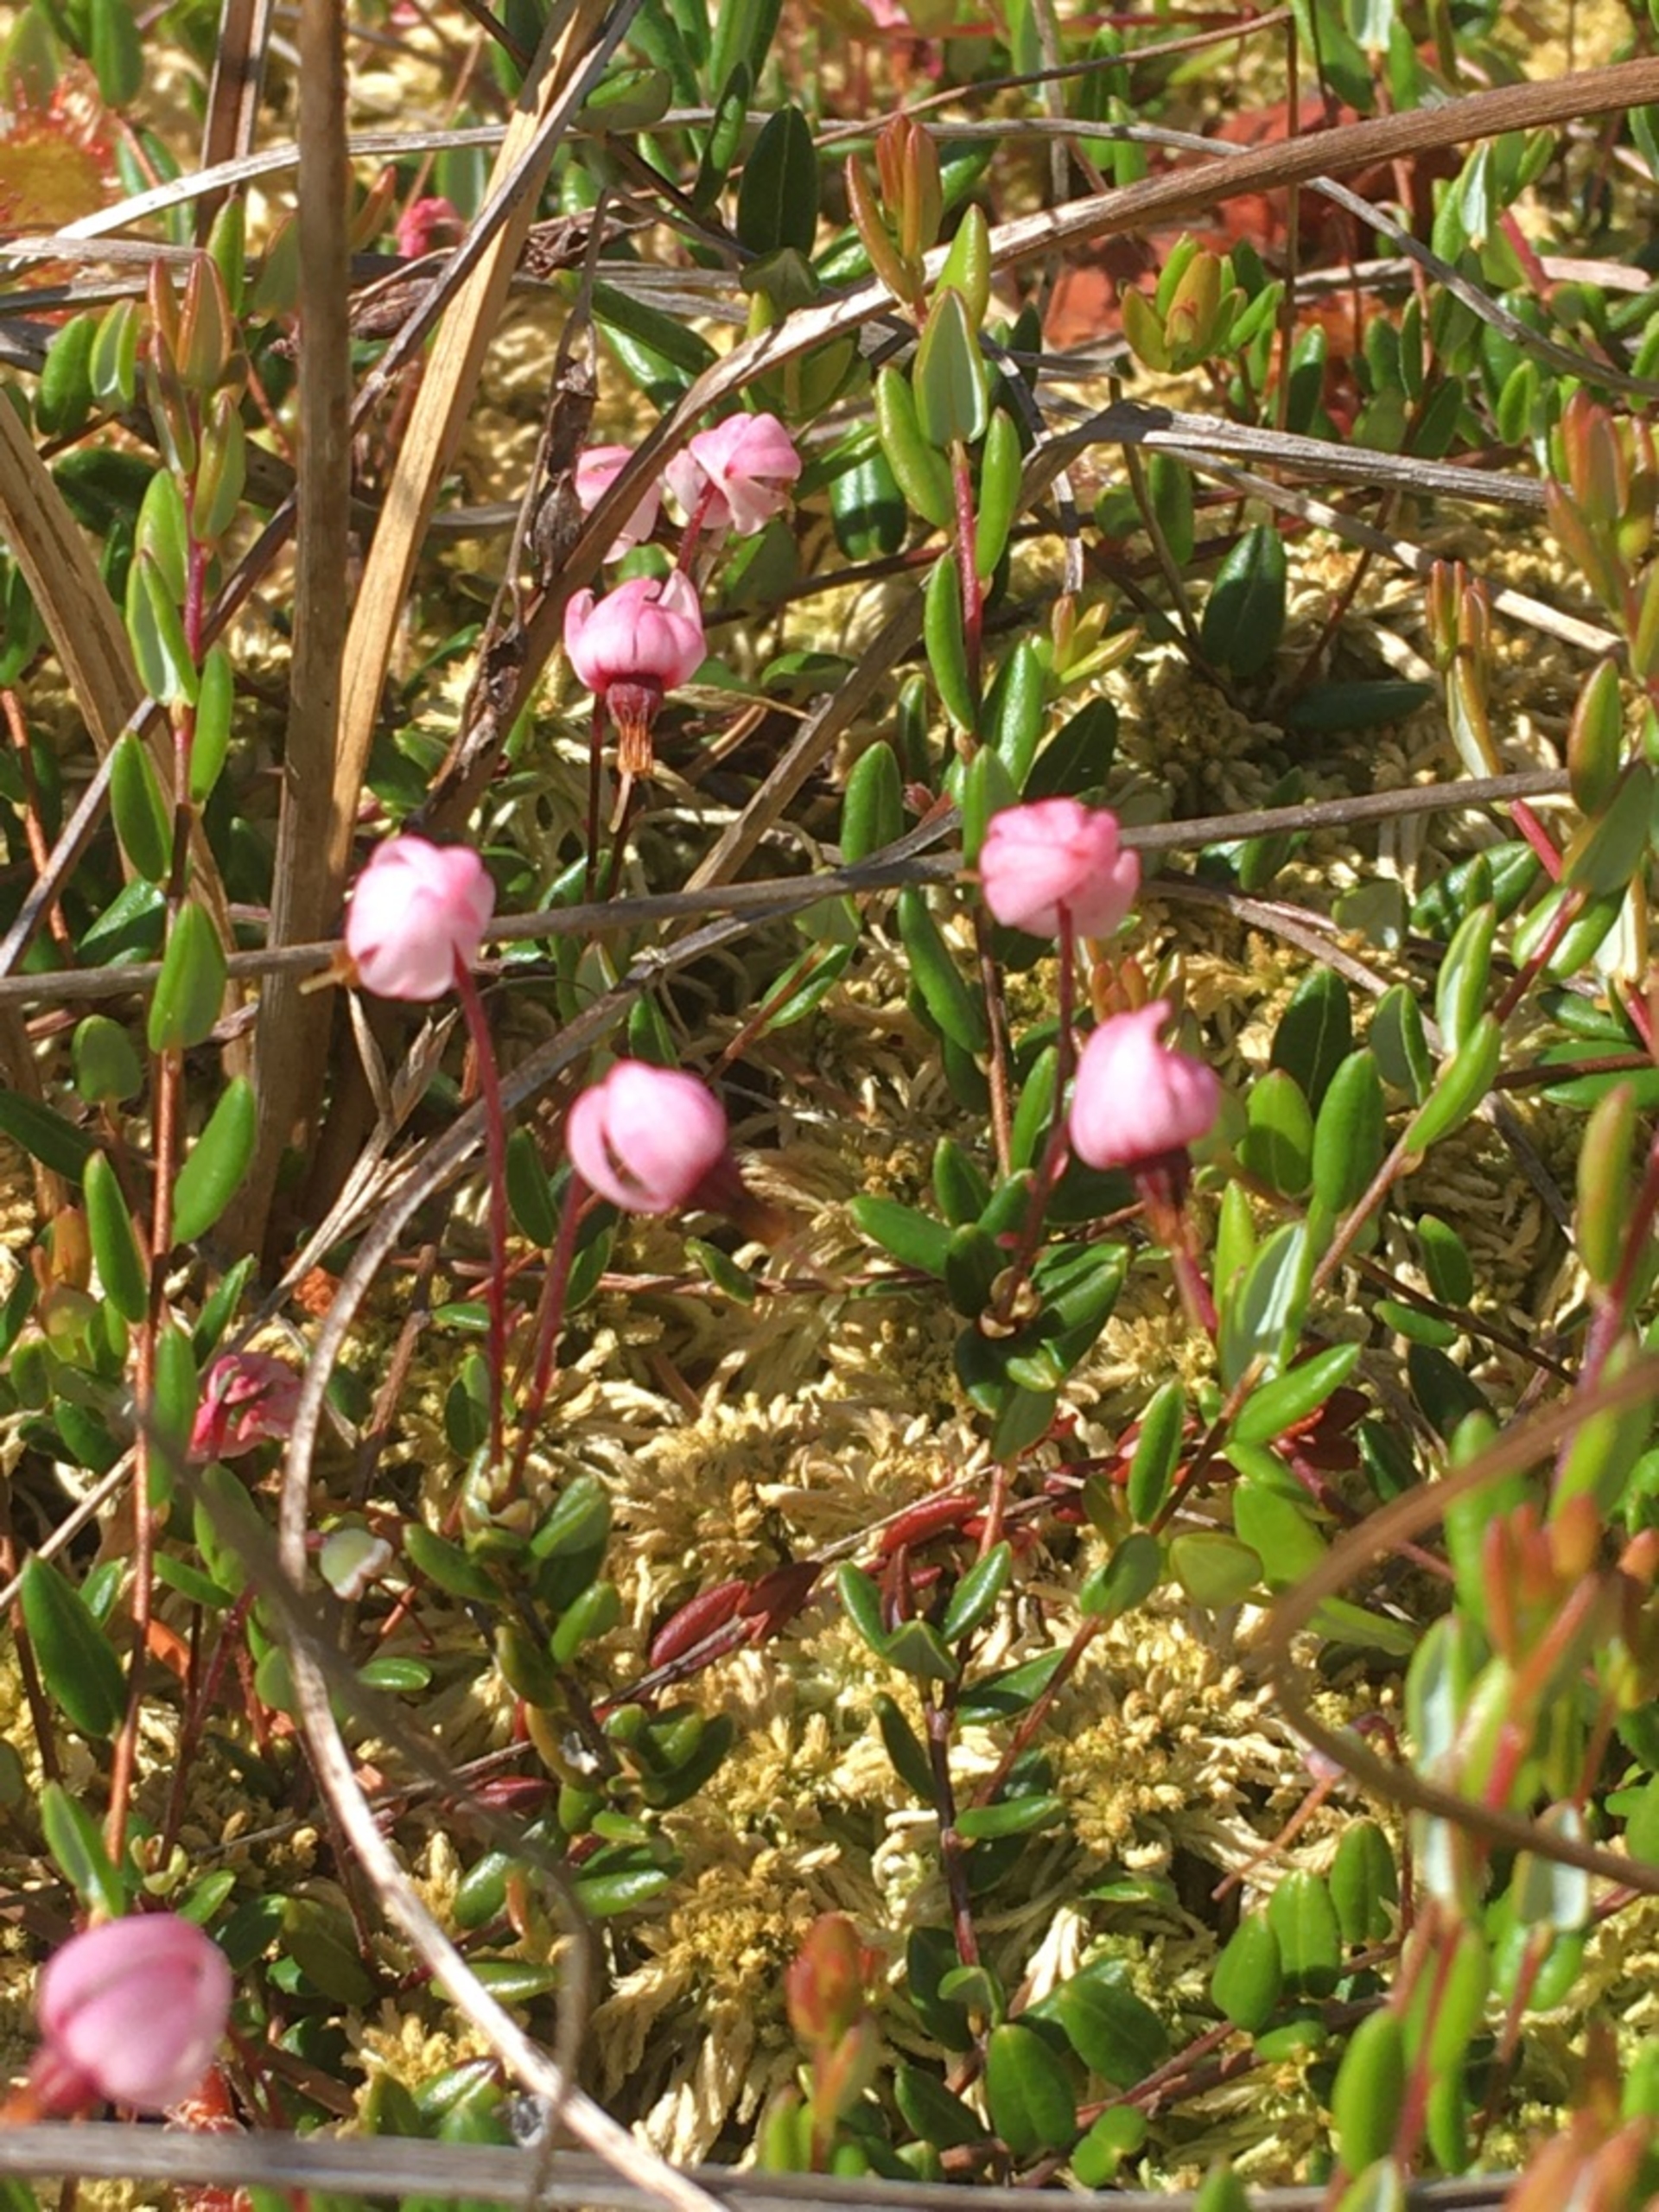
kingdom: Plantae
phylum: Tracheophyta
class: Magnoliopsida
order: Ericales
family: Ericaceae
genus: Vaccinium
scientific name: Vaccinium oxycoccos
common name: Tranebær
